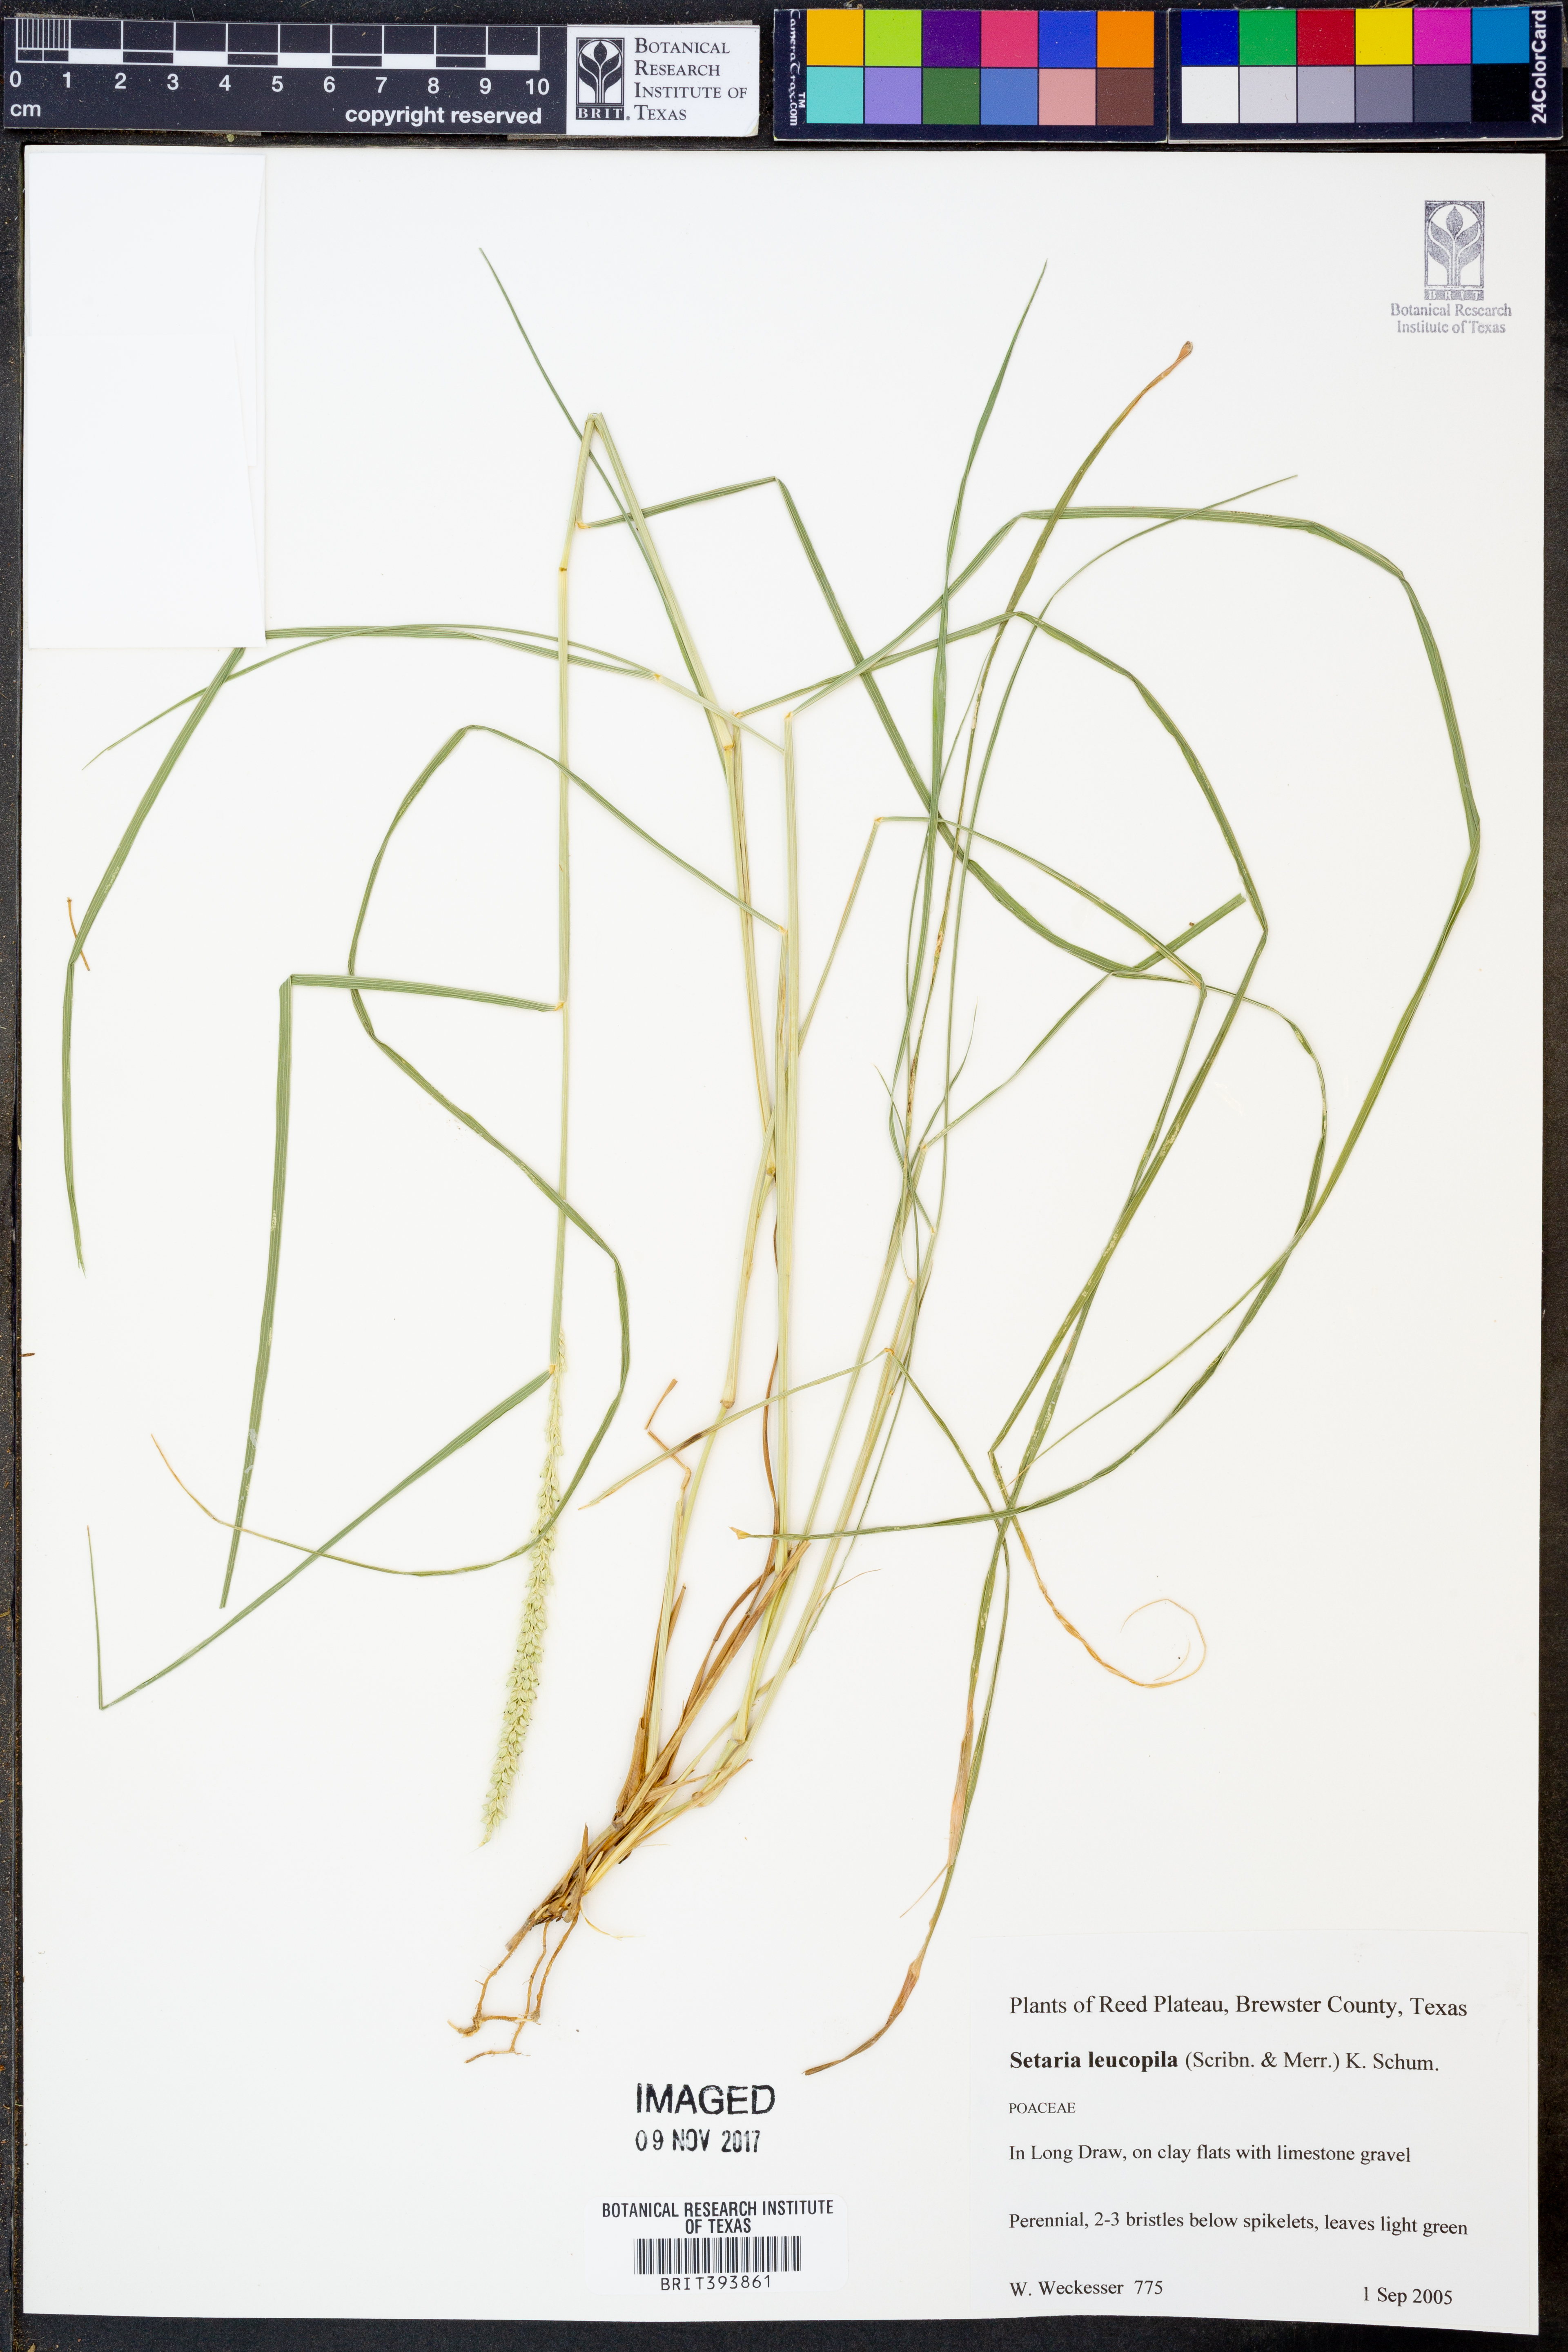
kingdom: Plantae
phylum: Tracheophyta
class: Liliopsida
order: Poales
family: Poaceae
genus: Setaria
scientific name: Setaria leucopila
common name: Plains bristle grass
